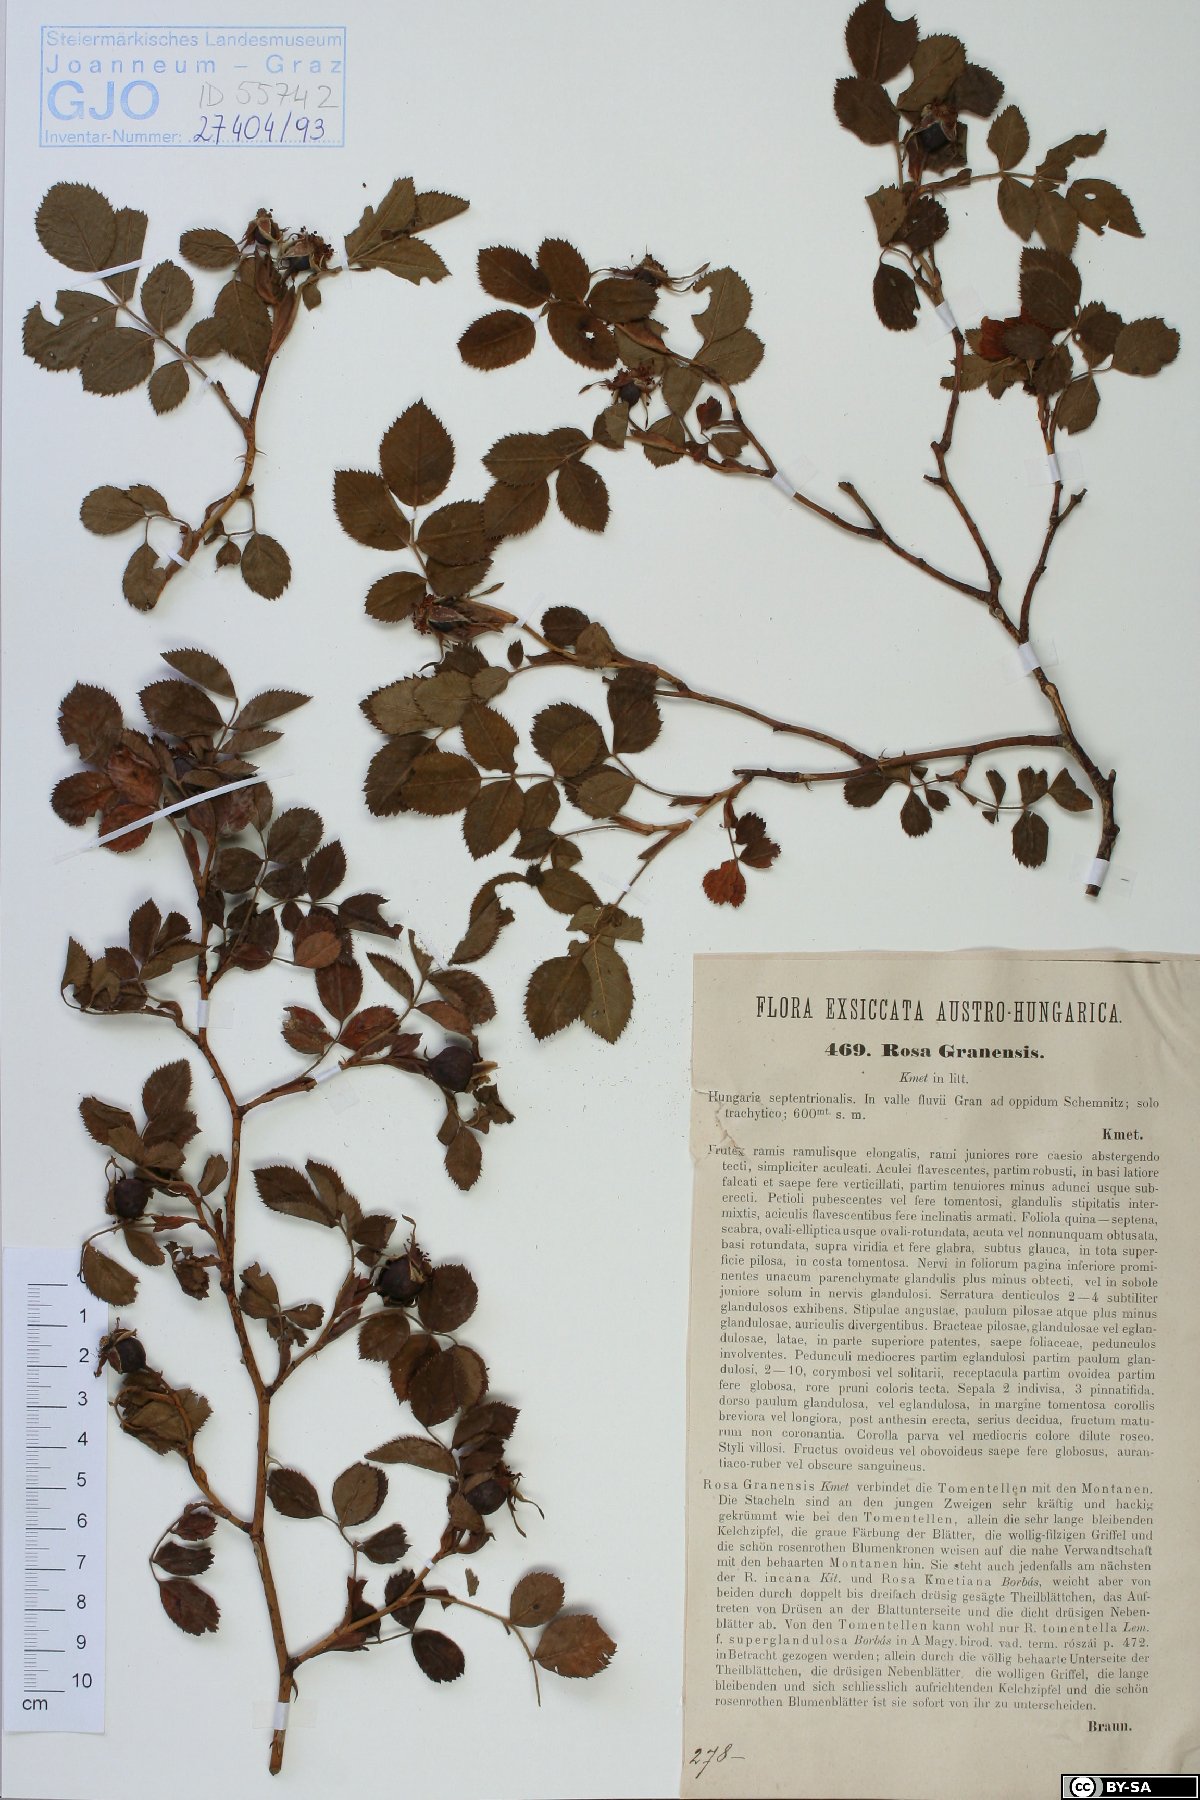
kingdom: Plantae
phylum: Tracheophyta
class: Magnoliopsida
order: Rosales
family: Rosaceae
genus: Rosa
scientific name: Rosa balsamica
